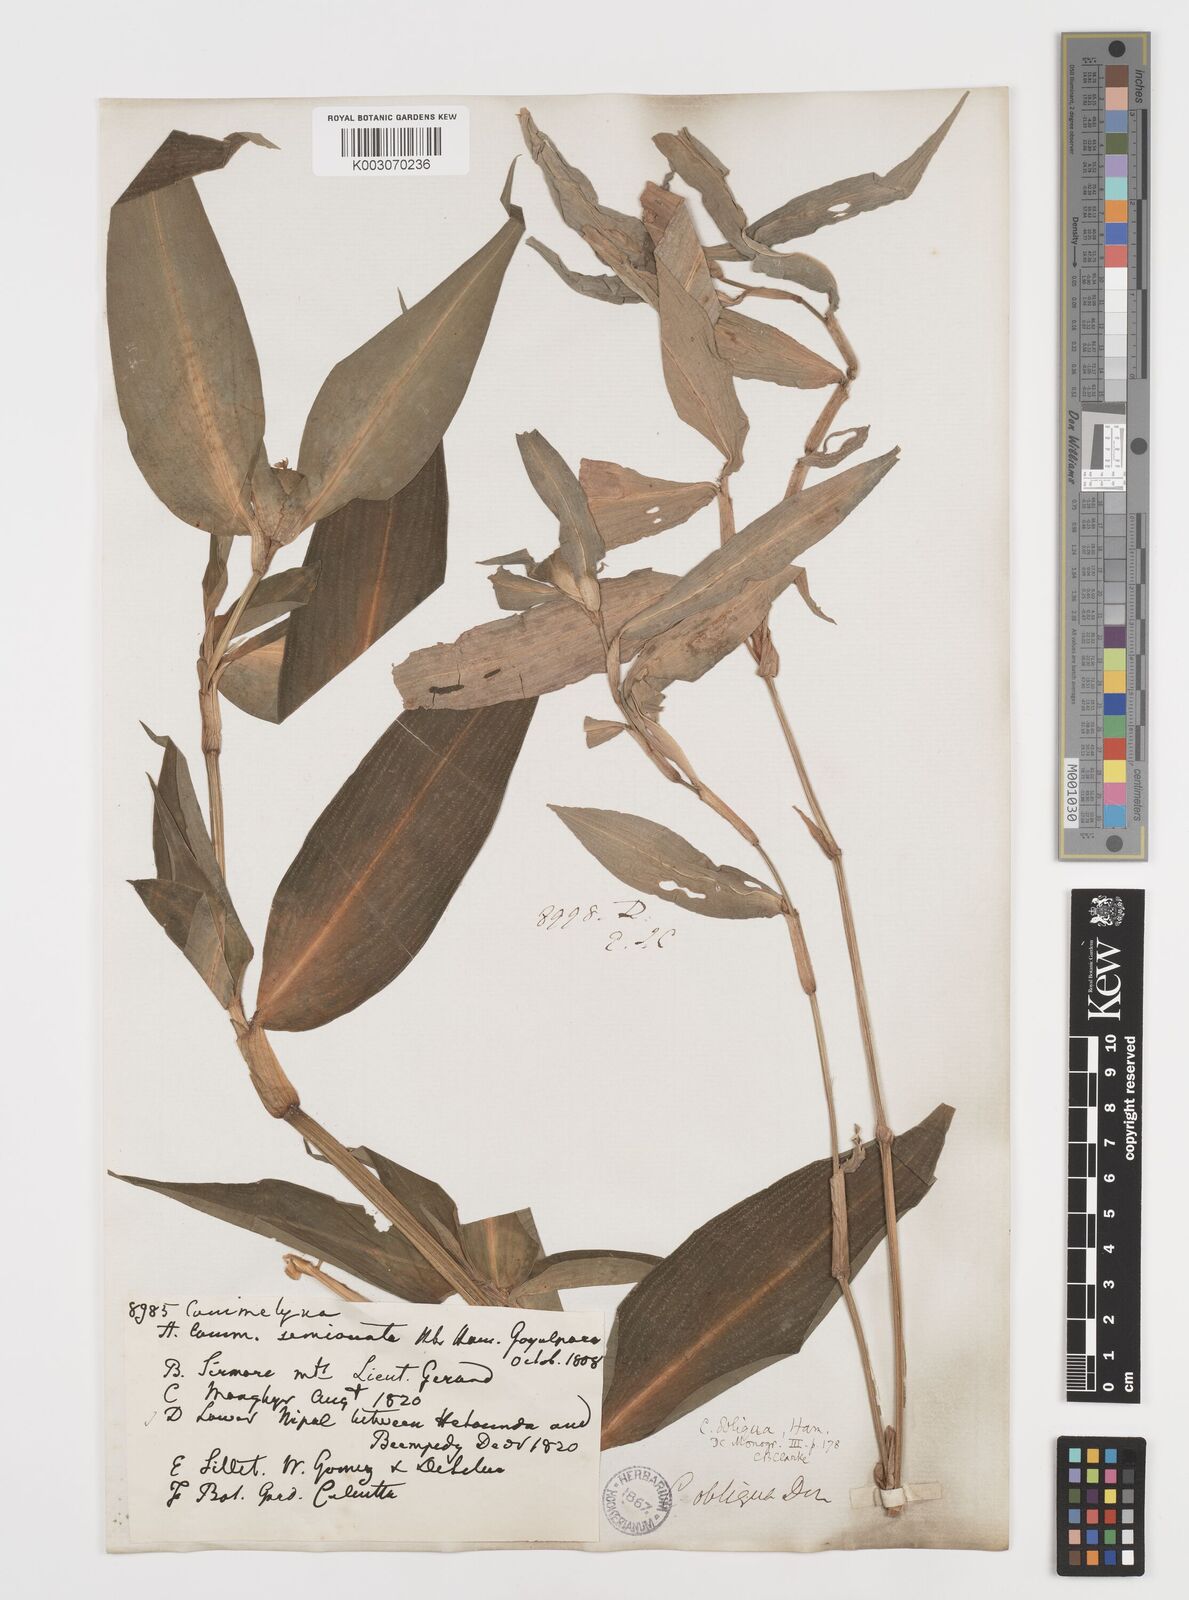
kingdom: Plantae
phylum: Tracheophyta
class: Liliopsida
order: Commelinales
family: Commelinaceae
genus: Commelina
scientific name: Commelina paludosa
